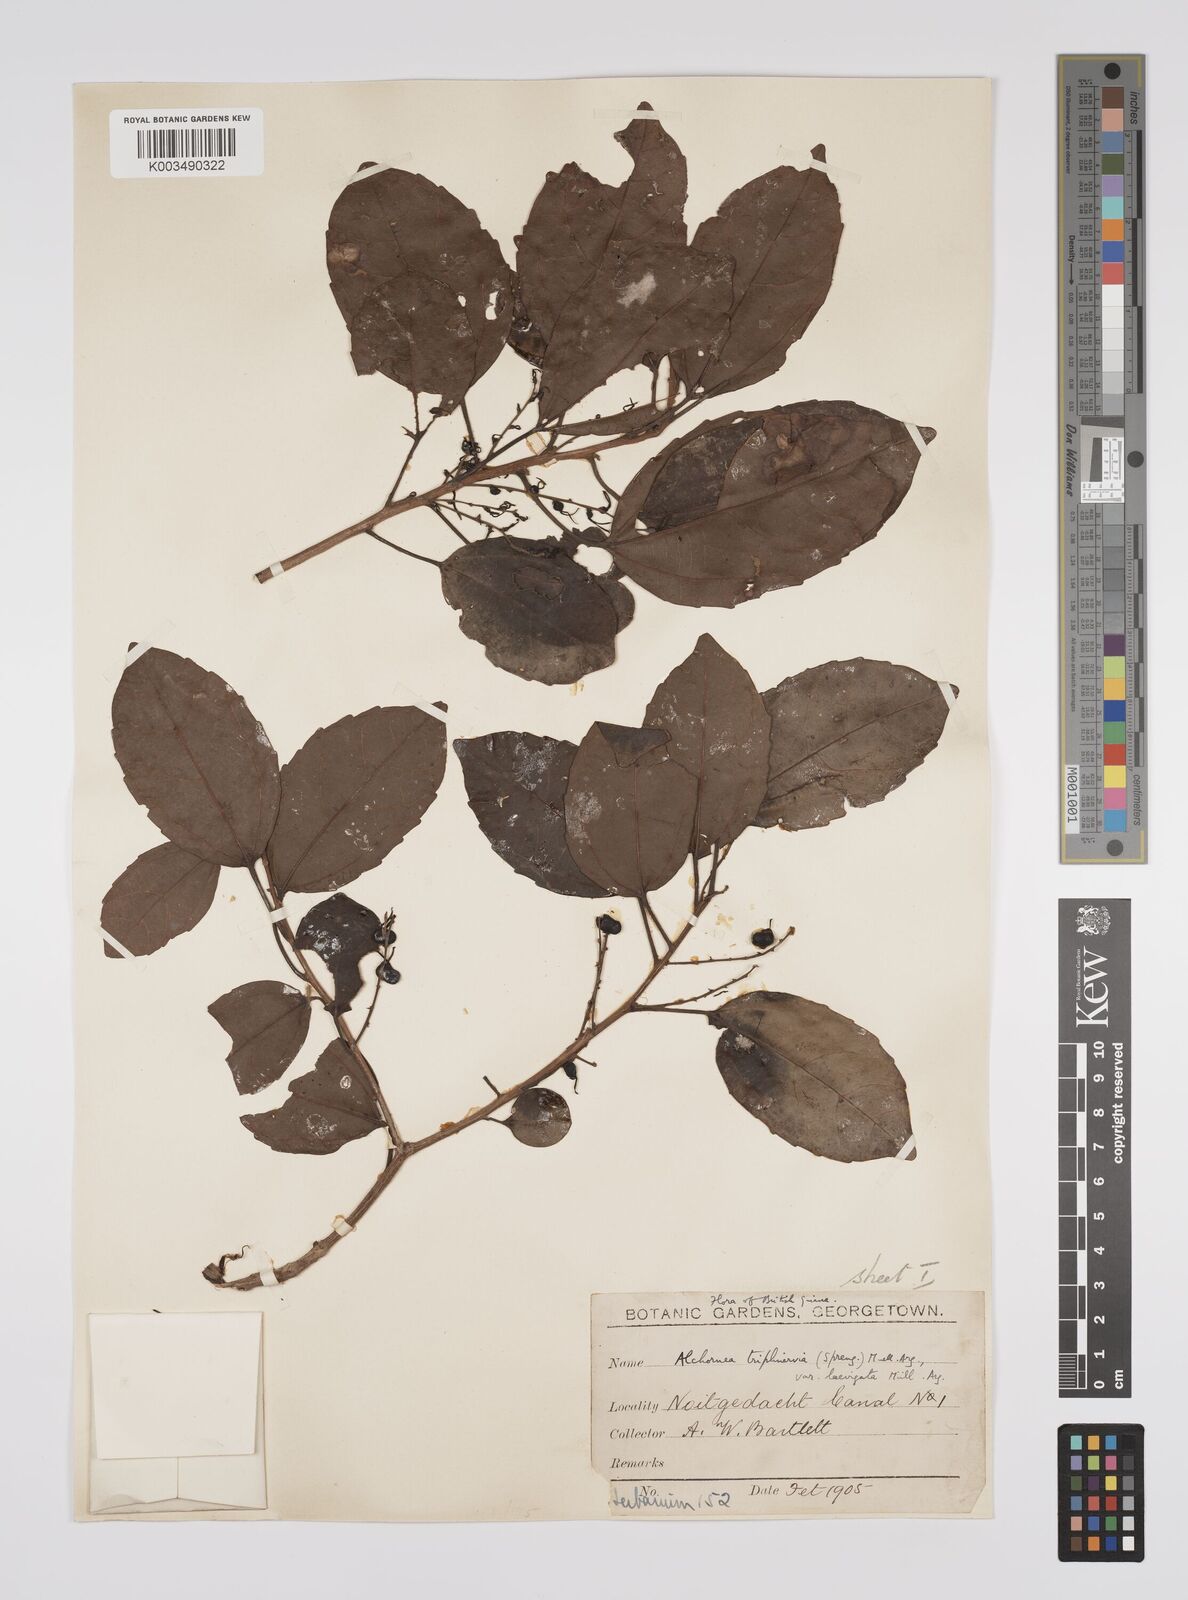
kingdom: Plantae
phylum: Tracheophyta
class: Magnoliopsida
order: Malpighiales
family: Euphorbiaceae
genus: Alchornea
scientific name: Alchornea triplinervia
